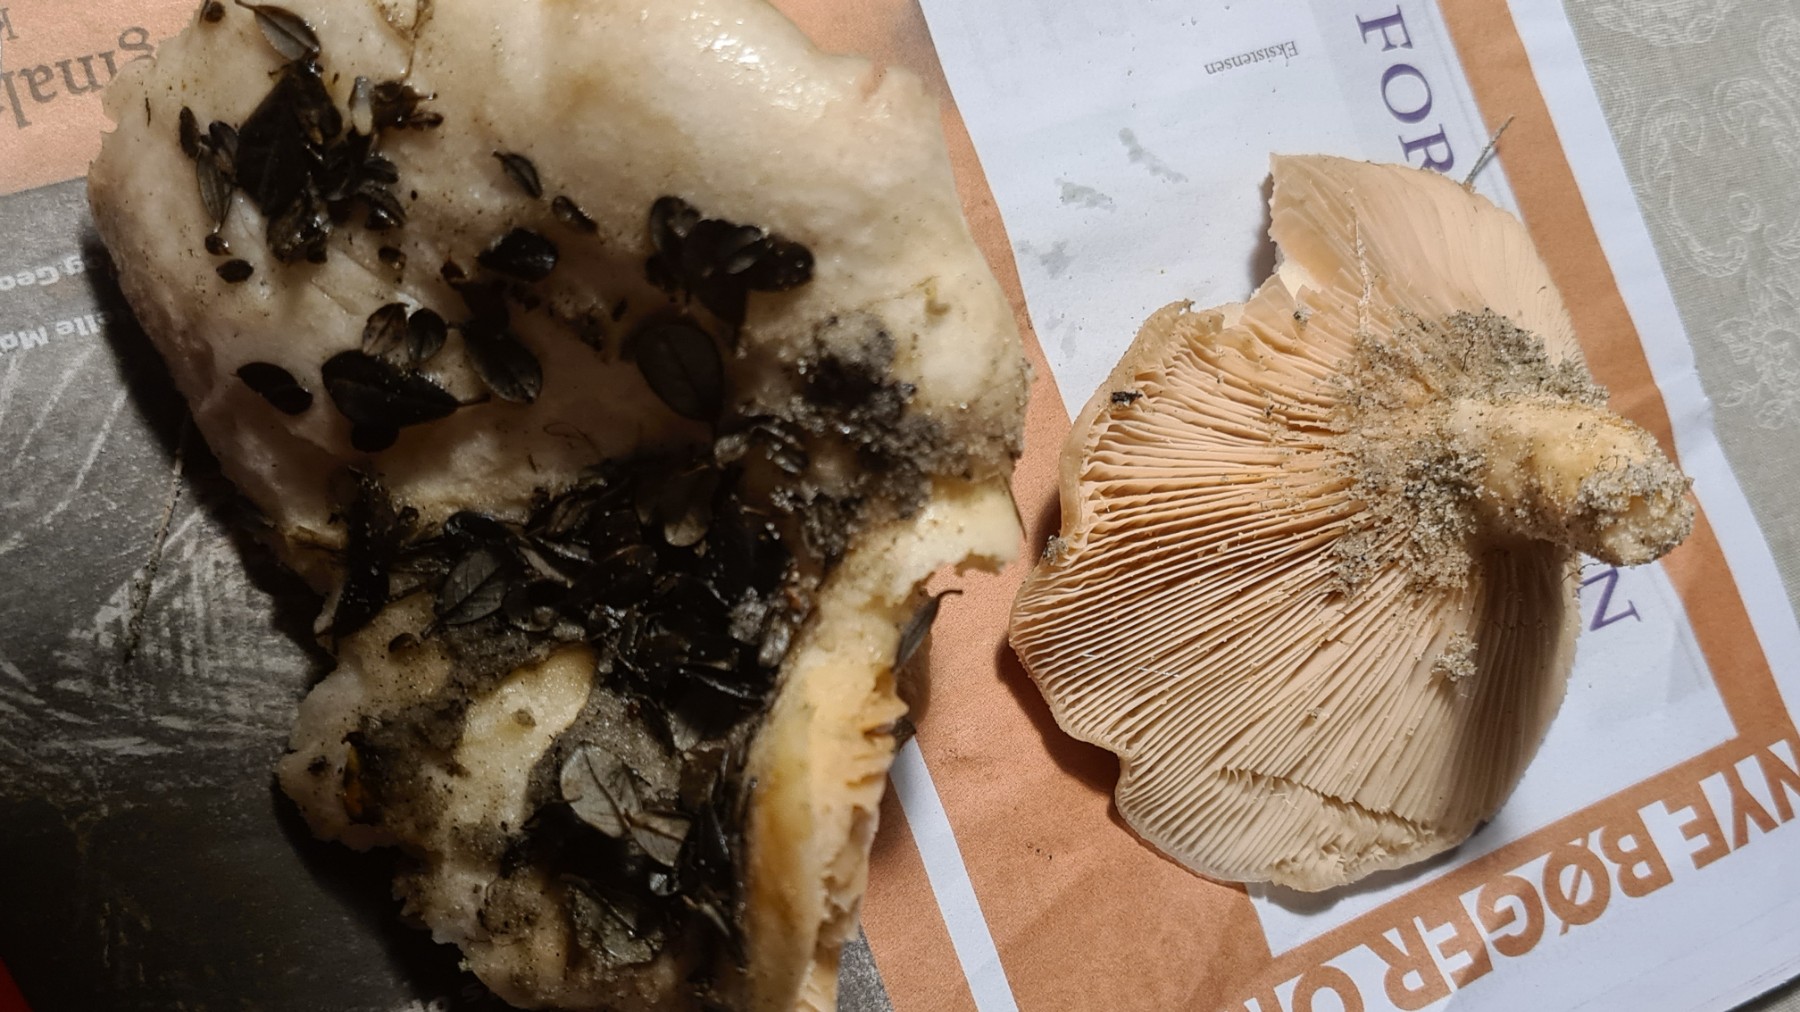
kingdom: Fungi
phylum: Basidiomycota
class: Agaricomycetes
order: Russulales
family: Russulaceae
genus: Lactarius
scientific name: Lactarius controversus
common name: rosabladet mælkehat
